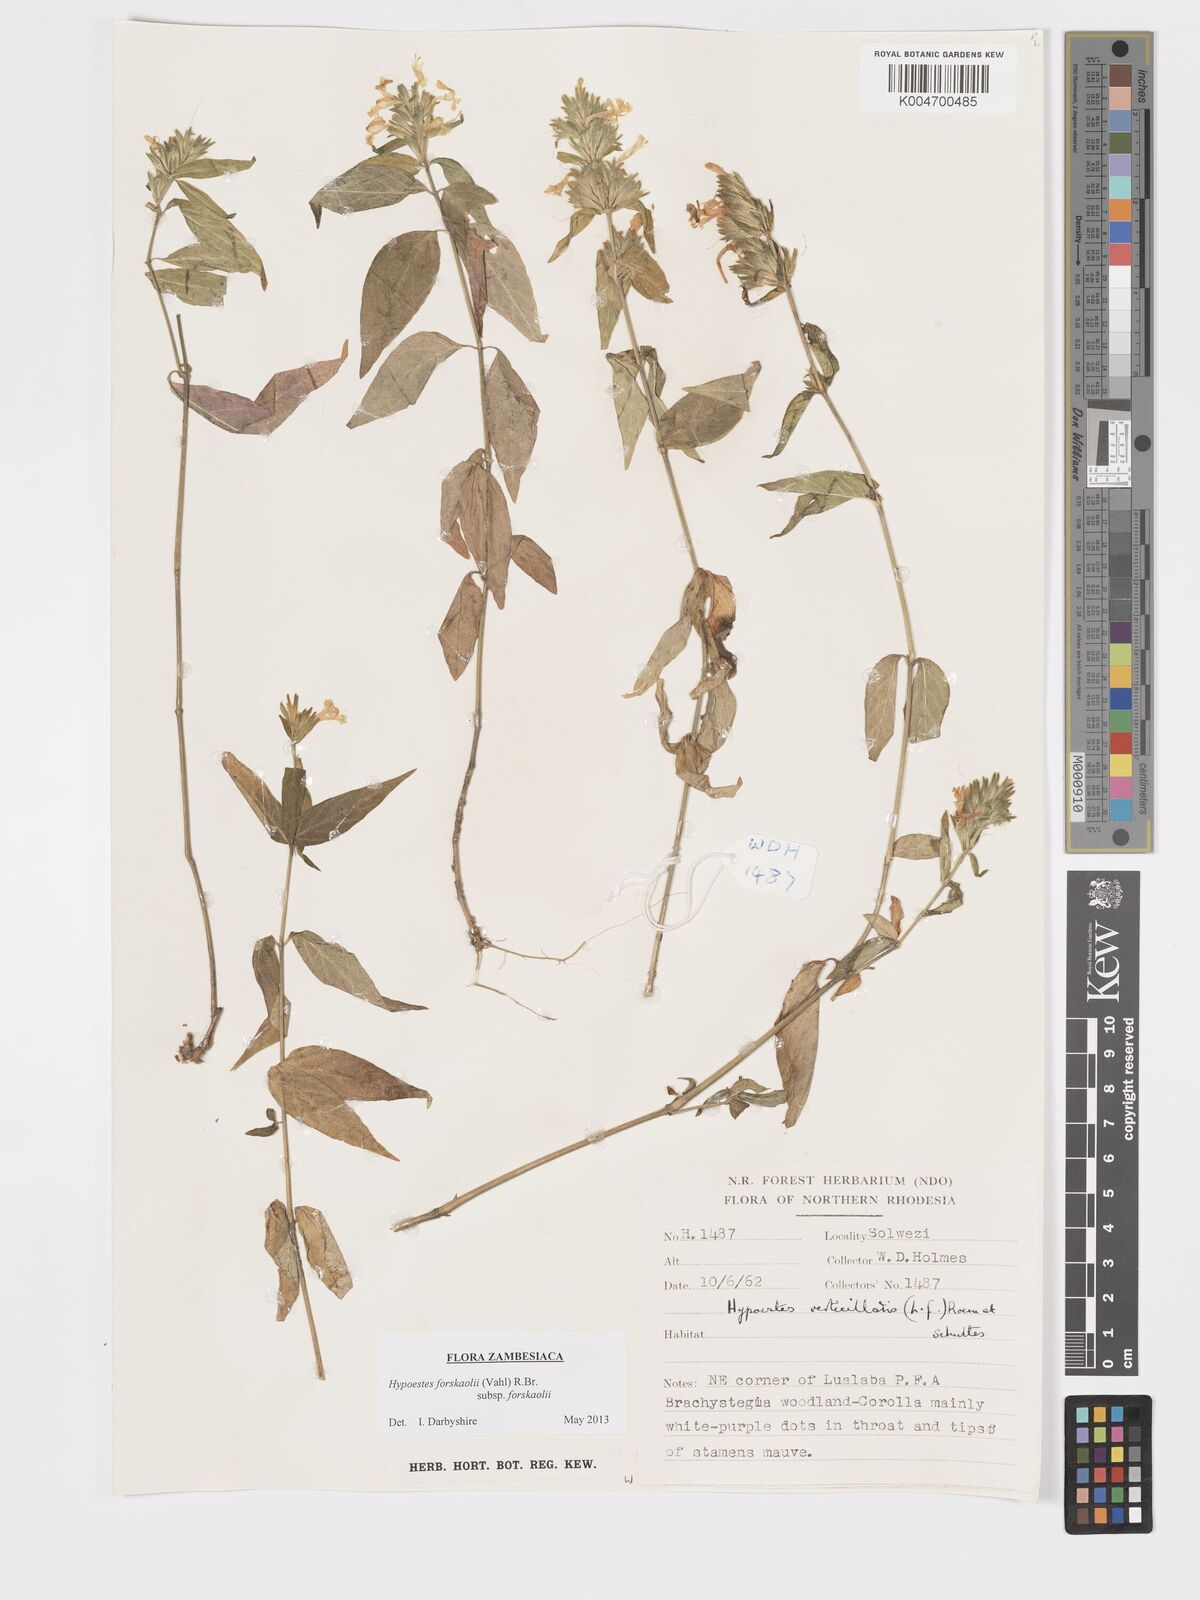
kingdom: Plantae
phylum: Tracheophyta
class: Magnoliopsida
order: Lamiales
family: Acanthaceae
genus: Hypoestes
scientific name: Hypoestes forskaolii
